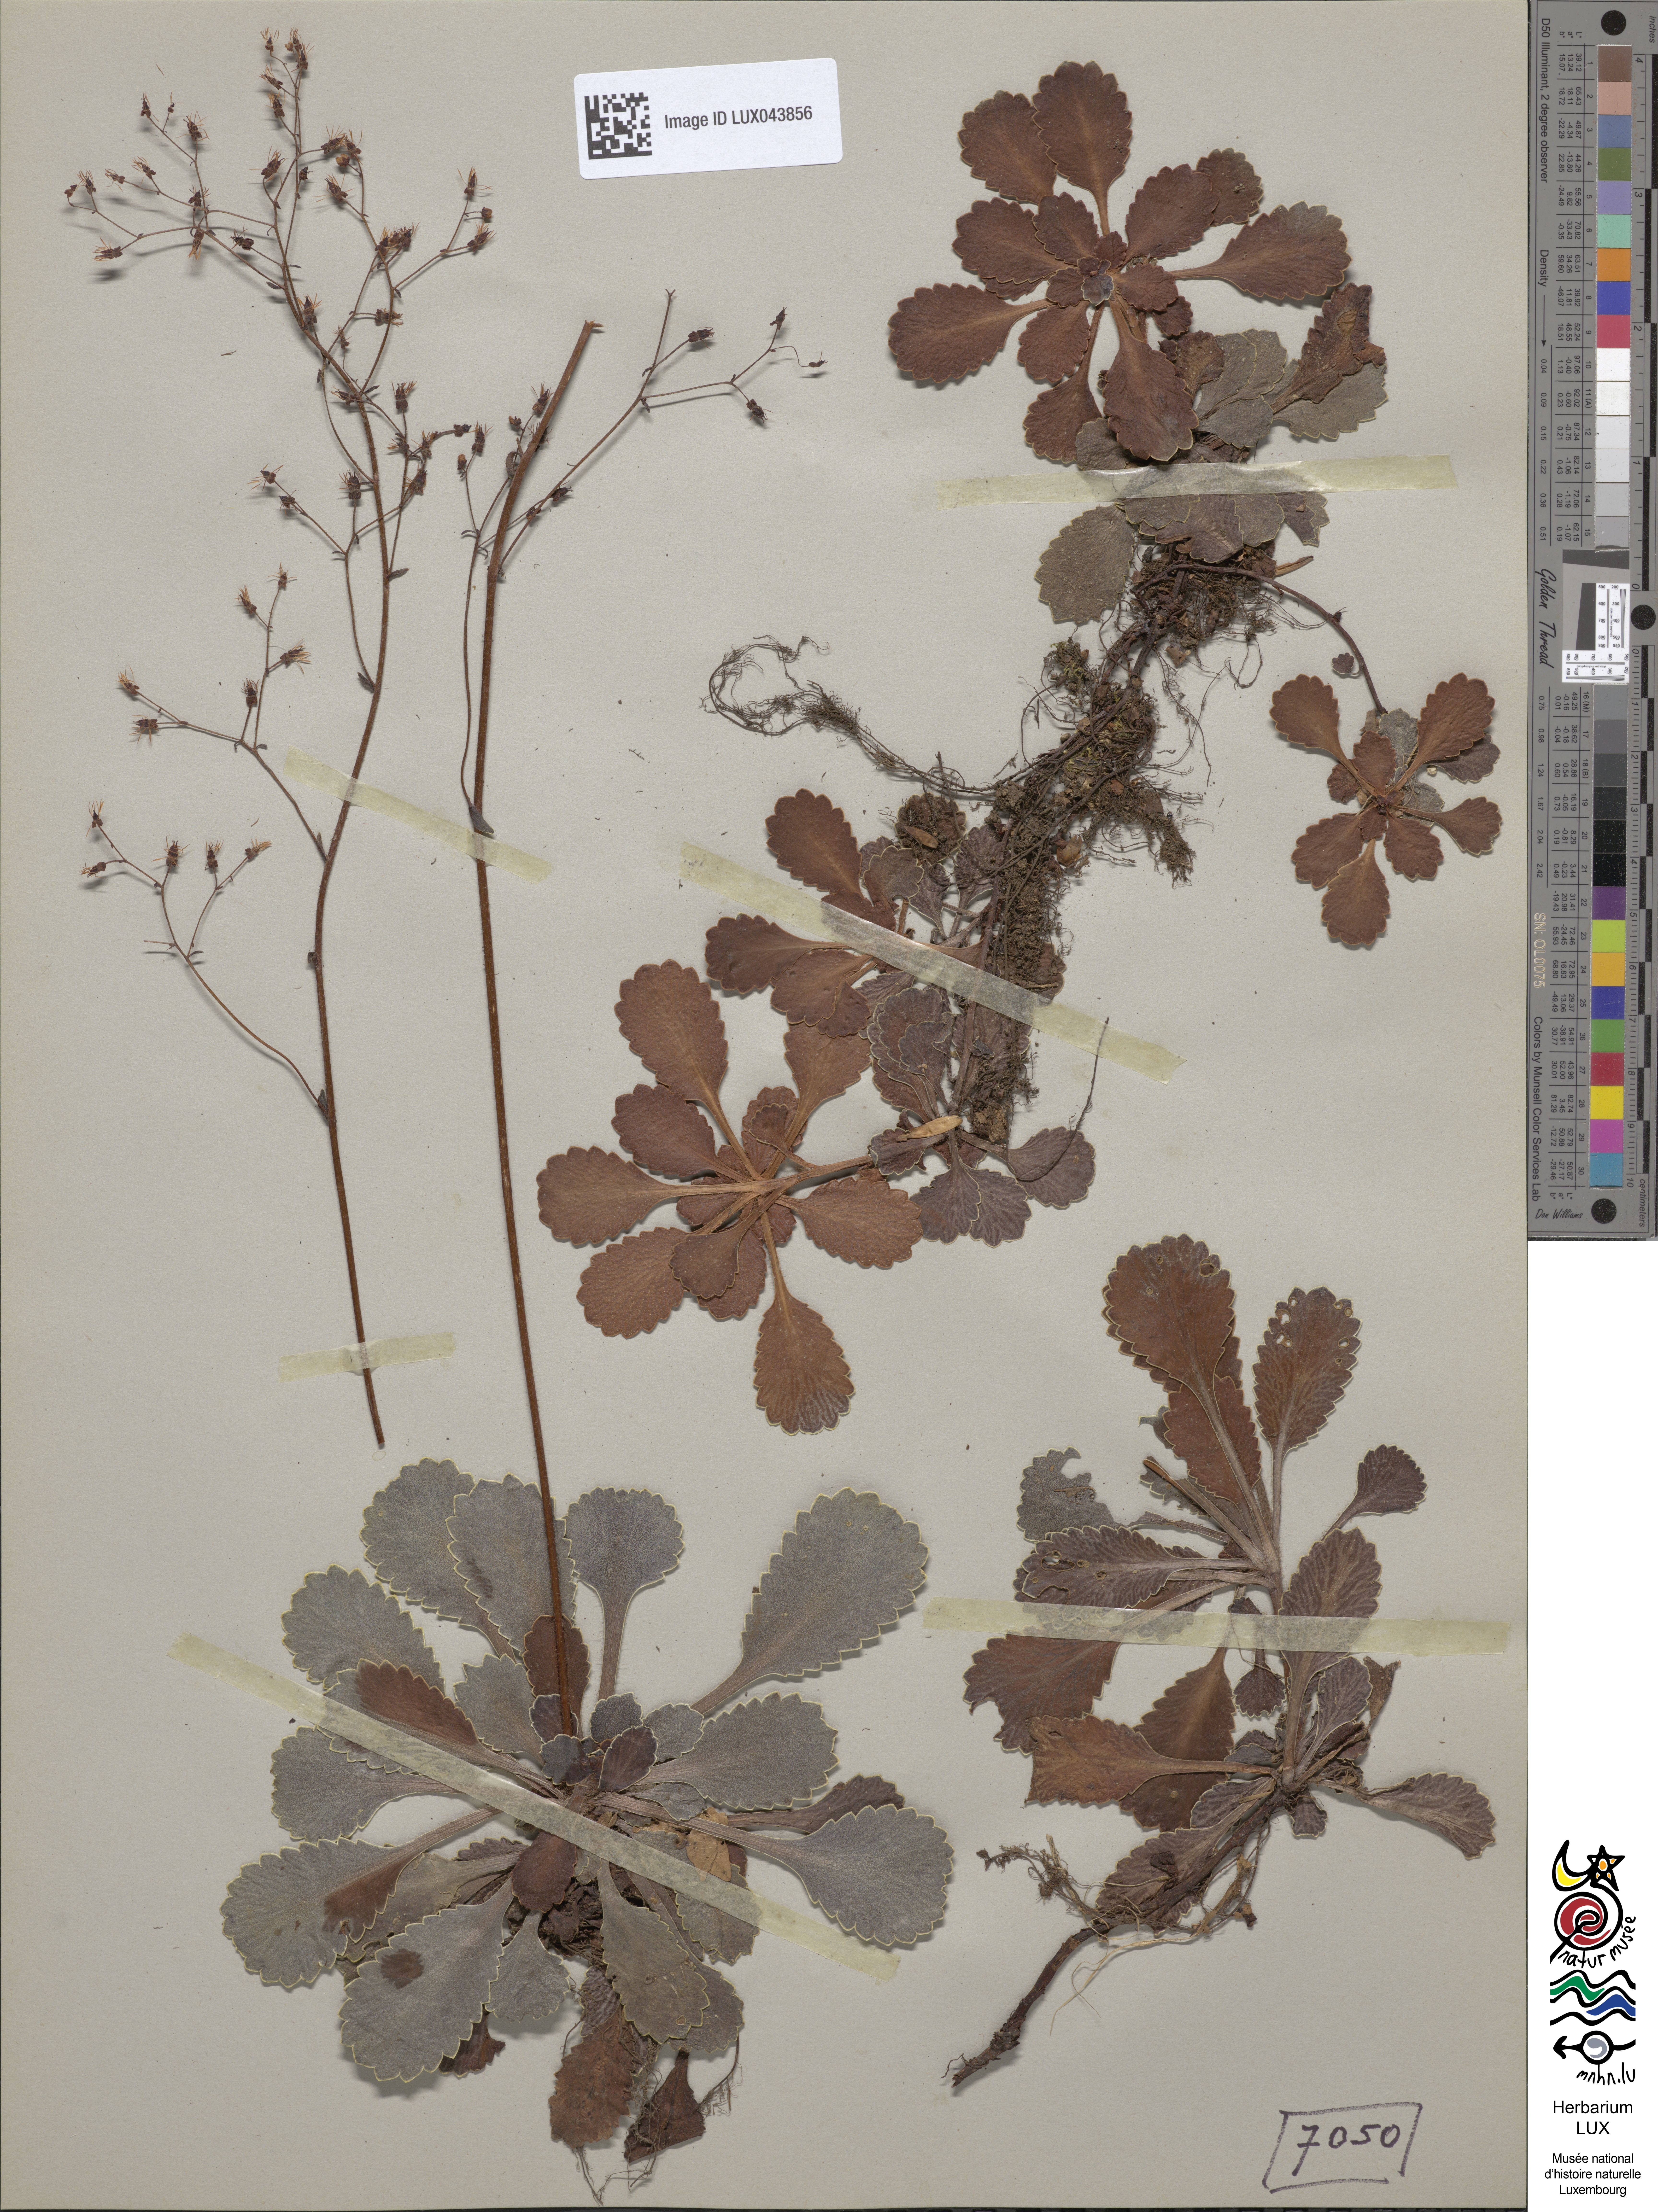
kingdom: Plantae
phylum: Tracheophyta
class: Magnoliopsida
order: Saxifragales
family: Saxifragaceae
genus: Saxifraga
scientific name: Saxifraga umbrosa
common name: Pyrenean saxifrage
